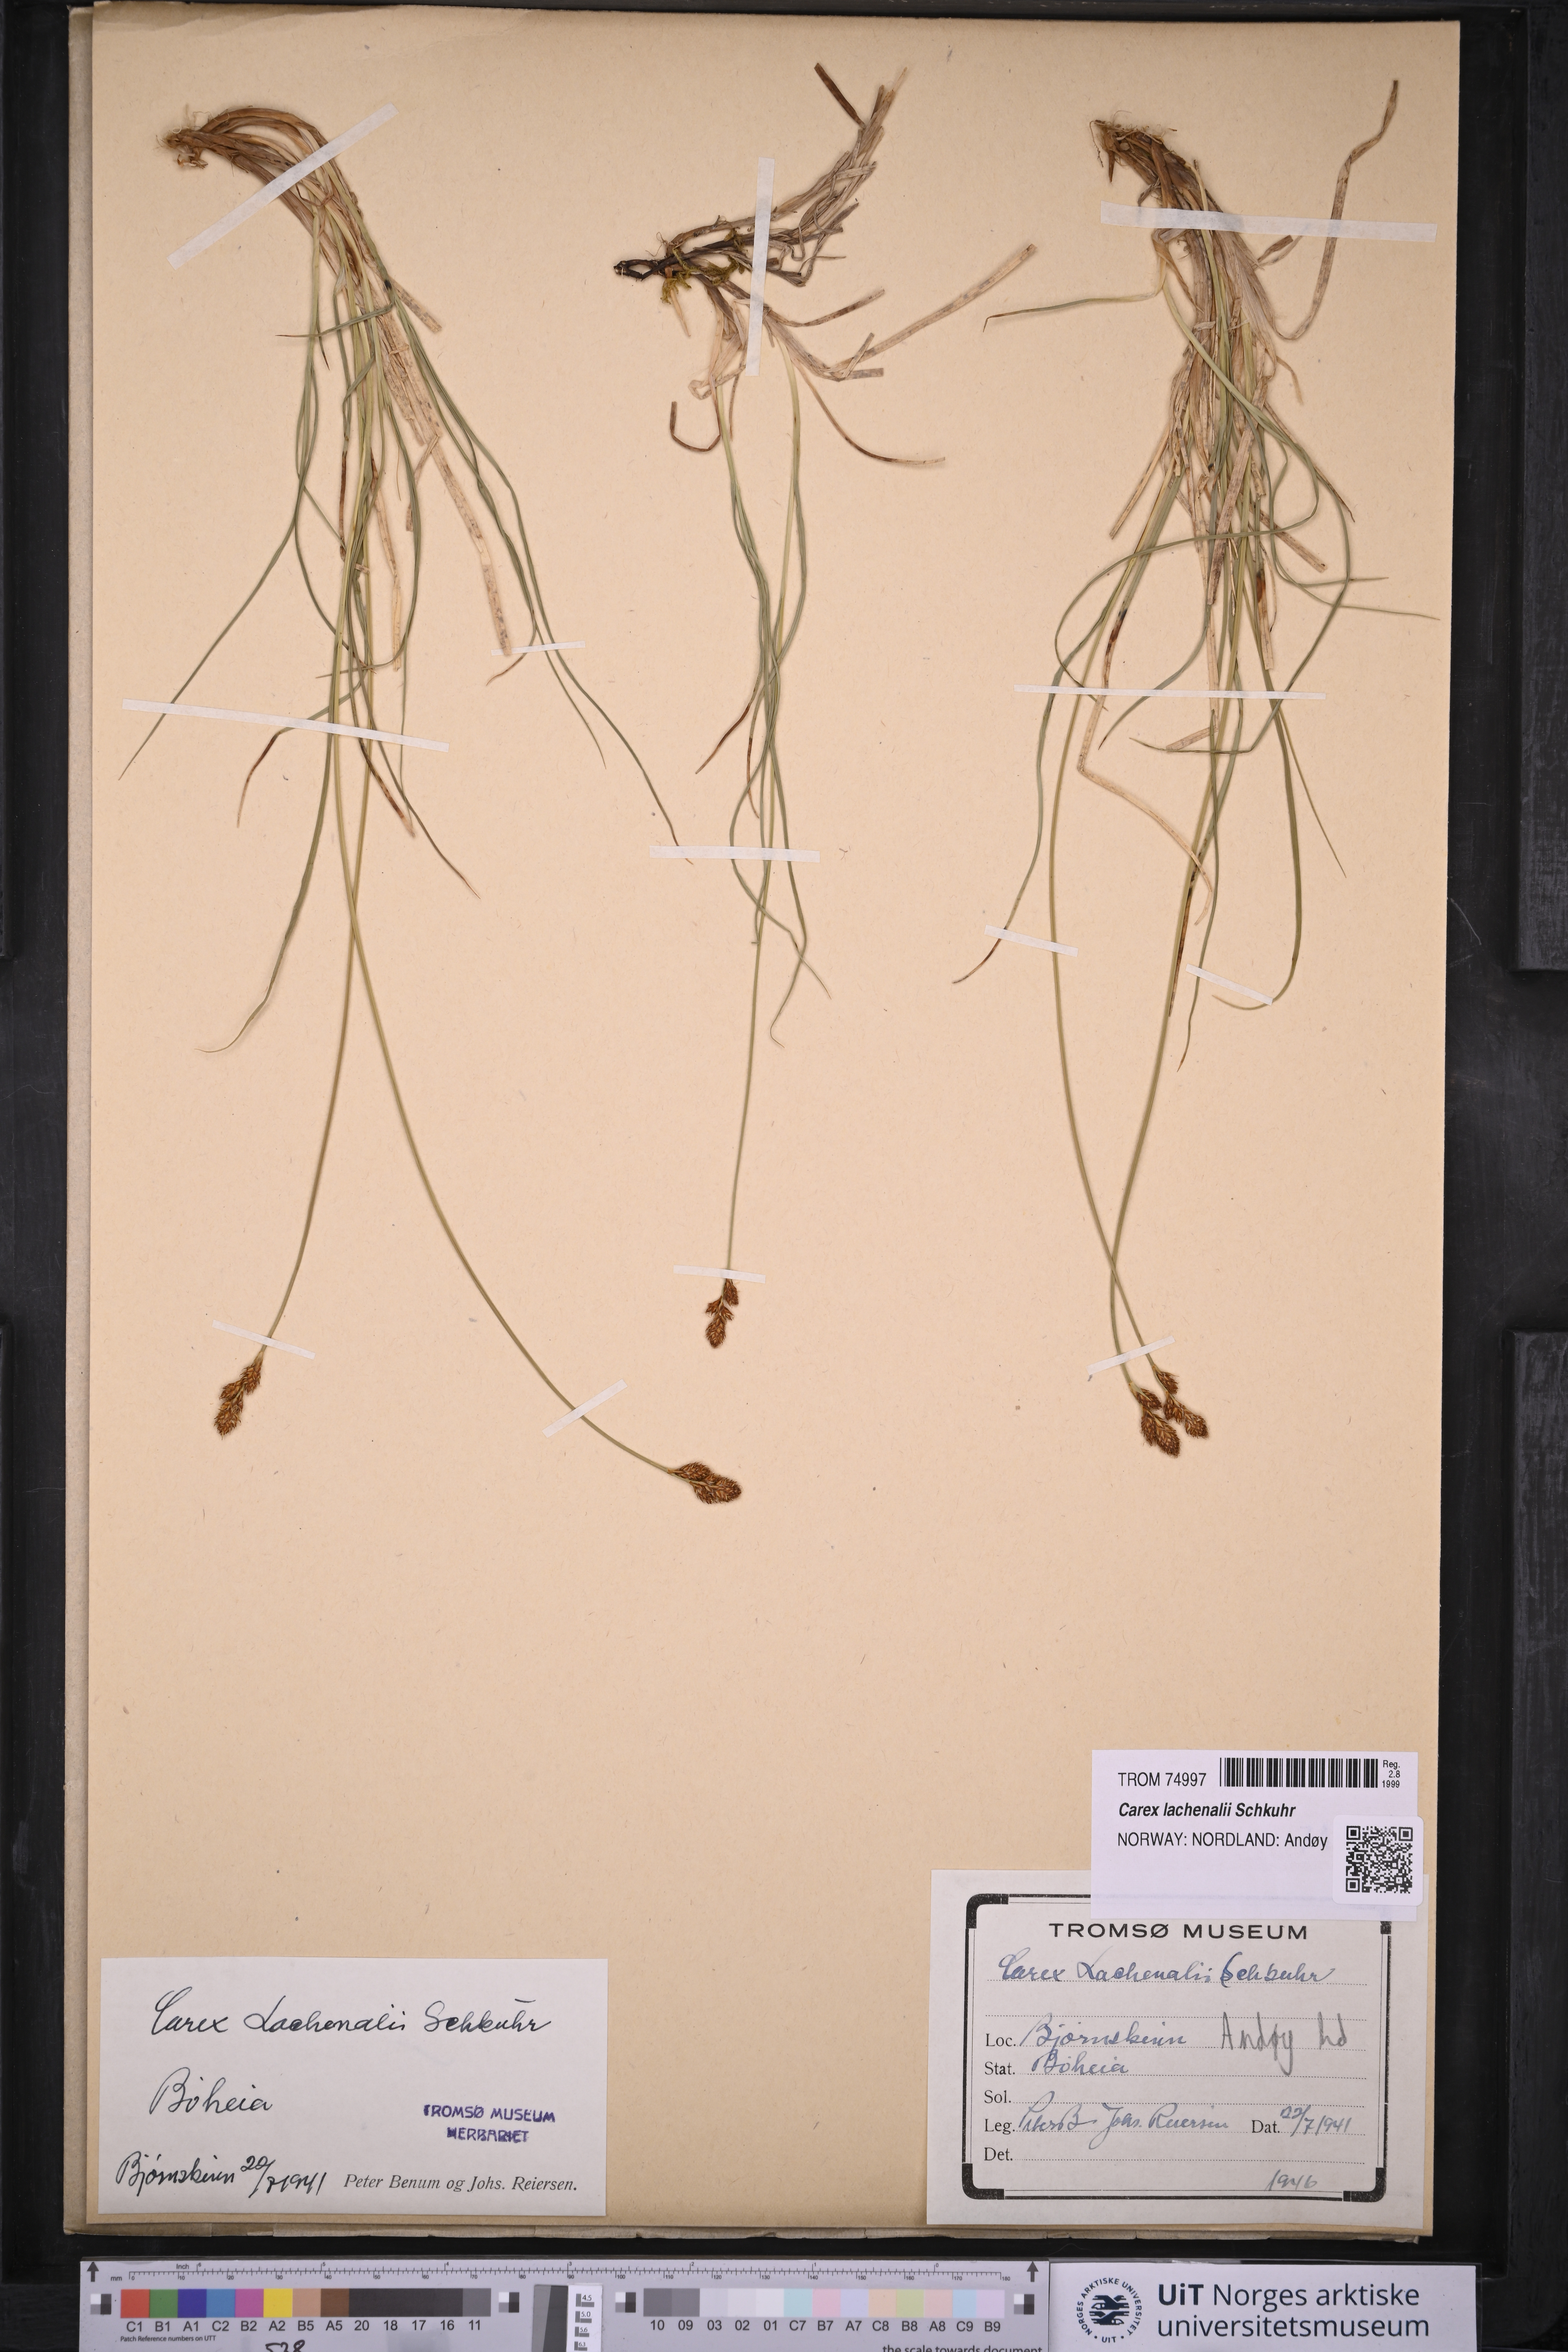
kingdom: Plantae
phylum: Tracheophyta
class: Liliopsida
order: Poales
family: Cyperaceae
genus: Carex
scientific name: Carex lachenalii
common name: Hare's-foot sedge
